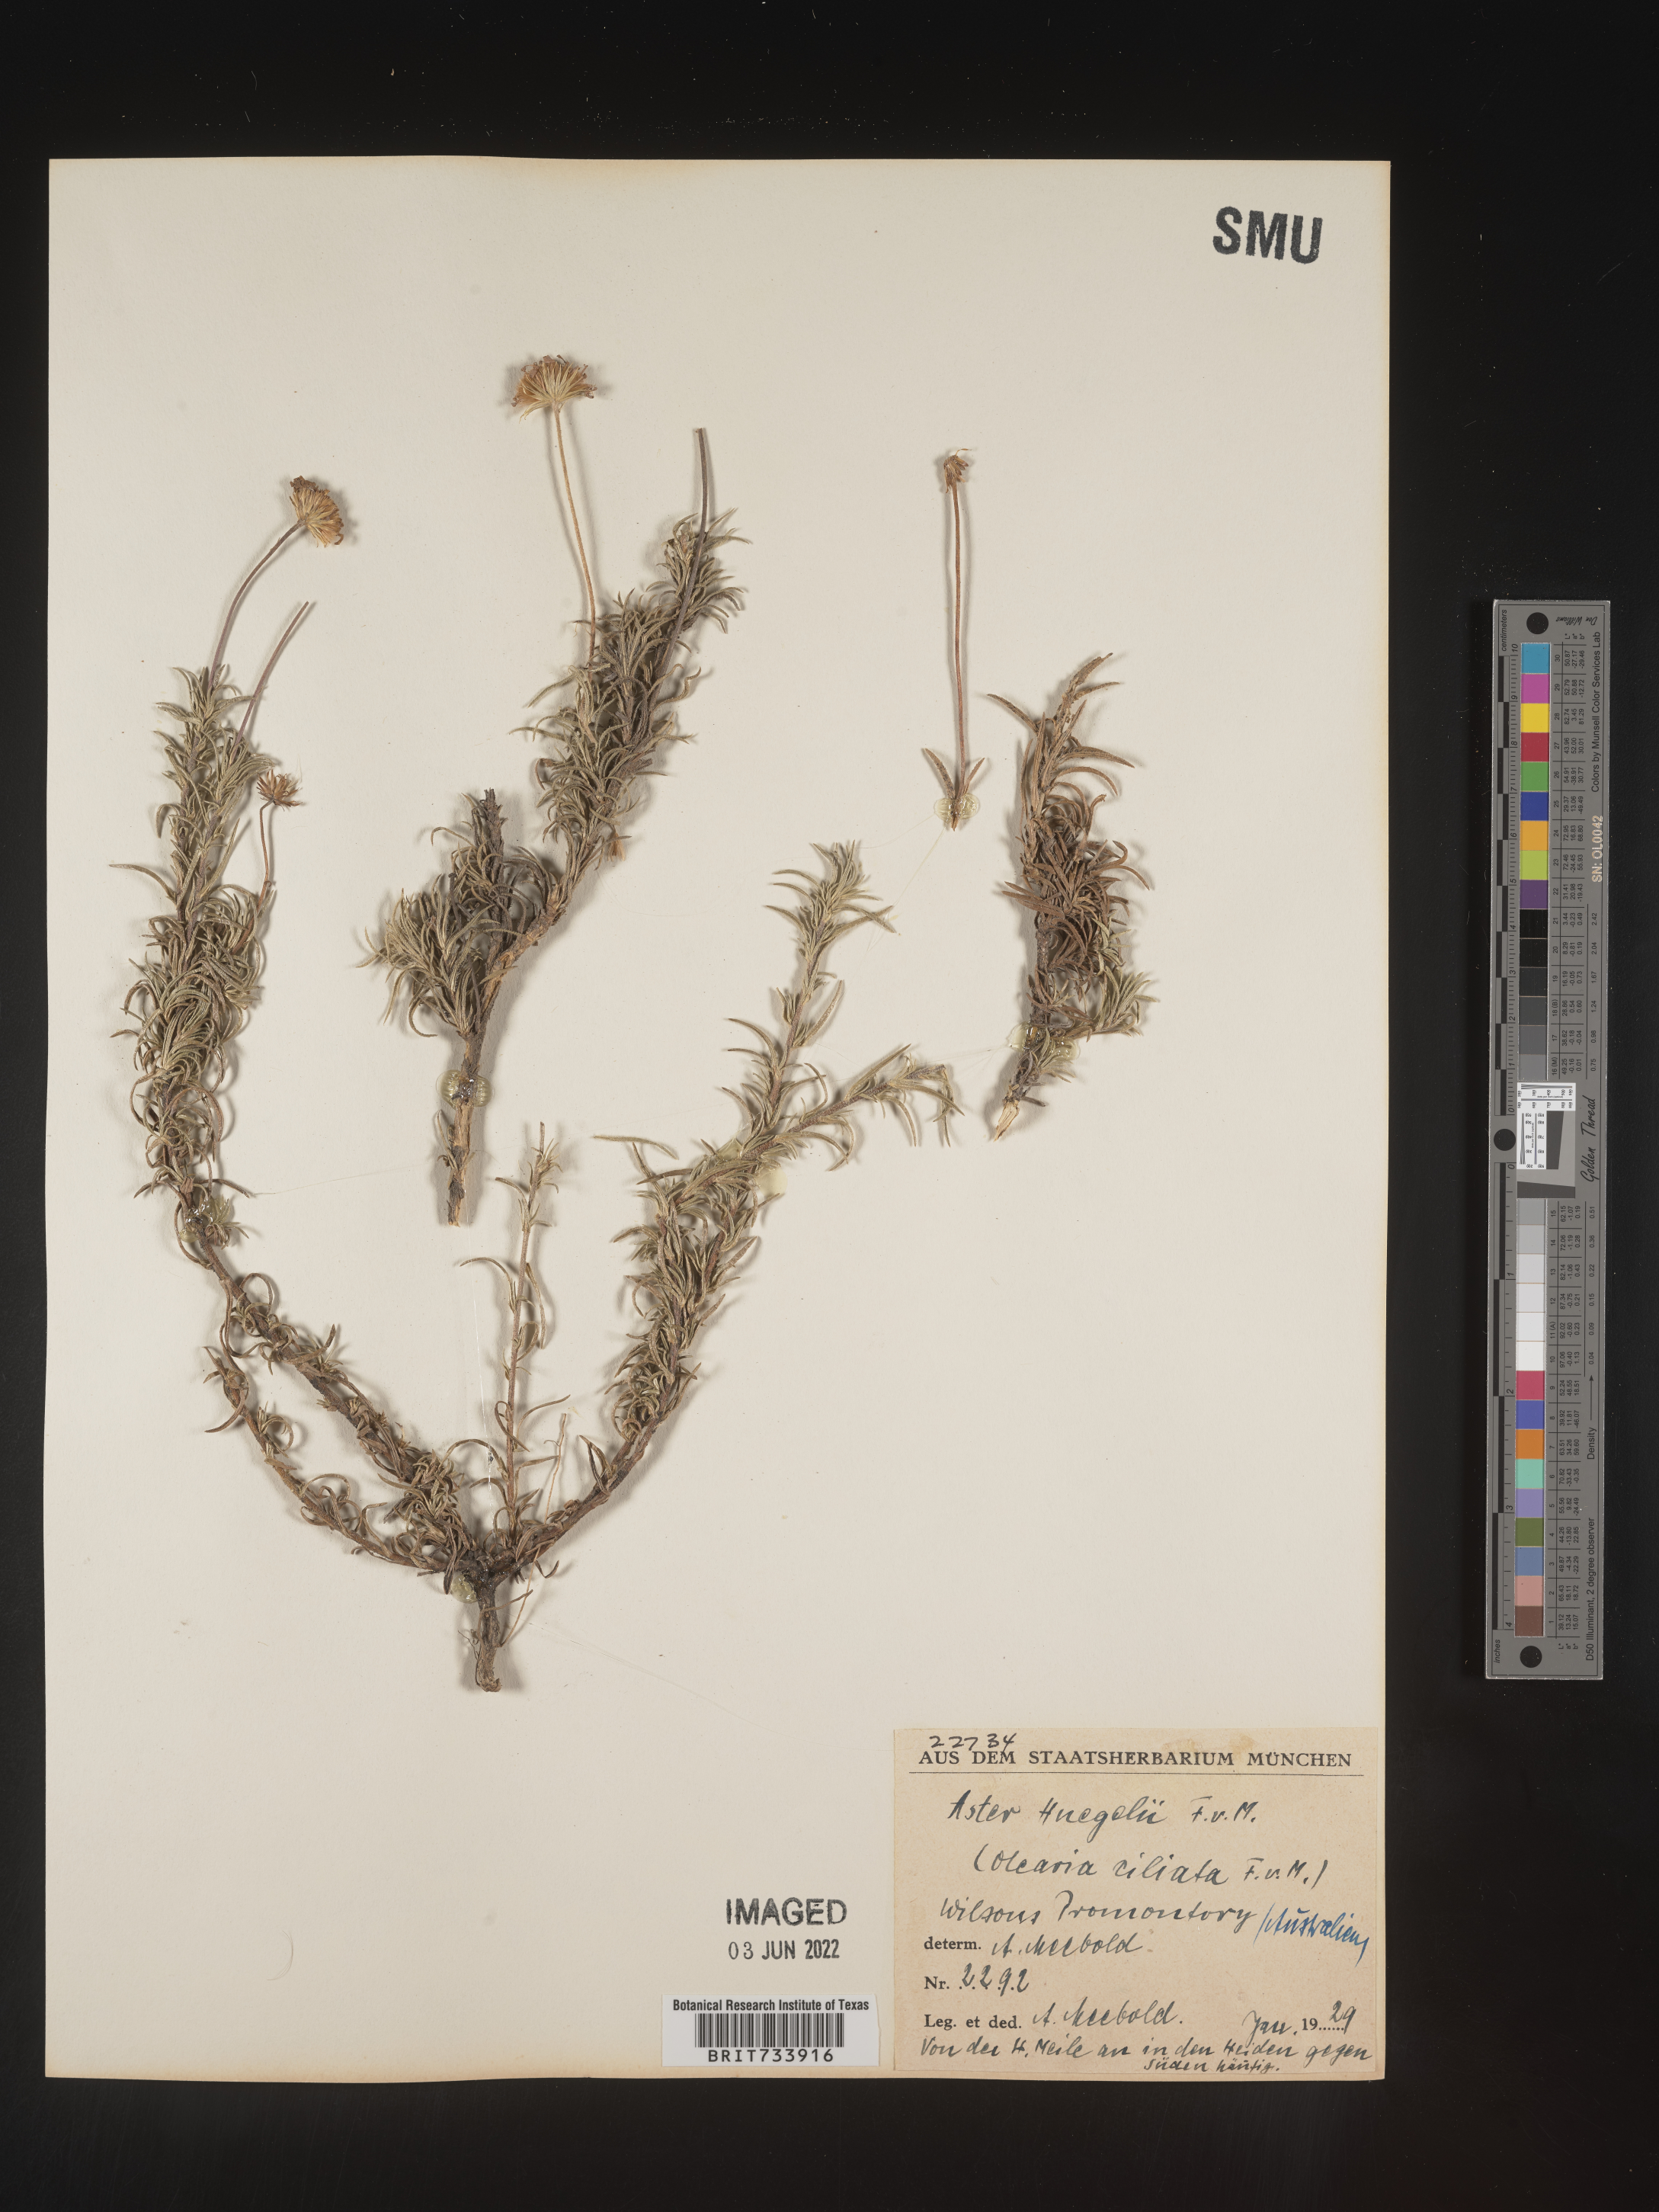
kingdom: Plantae
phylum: Tracheophyta
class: Magnoliopsida
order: Asterales
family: Asteraceae
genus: Olearia
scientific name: Olearia
